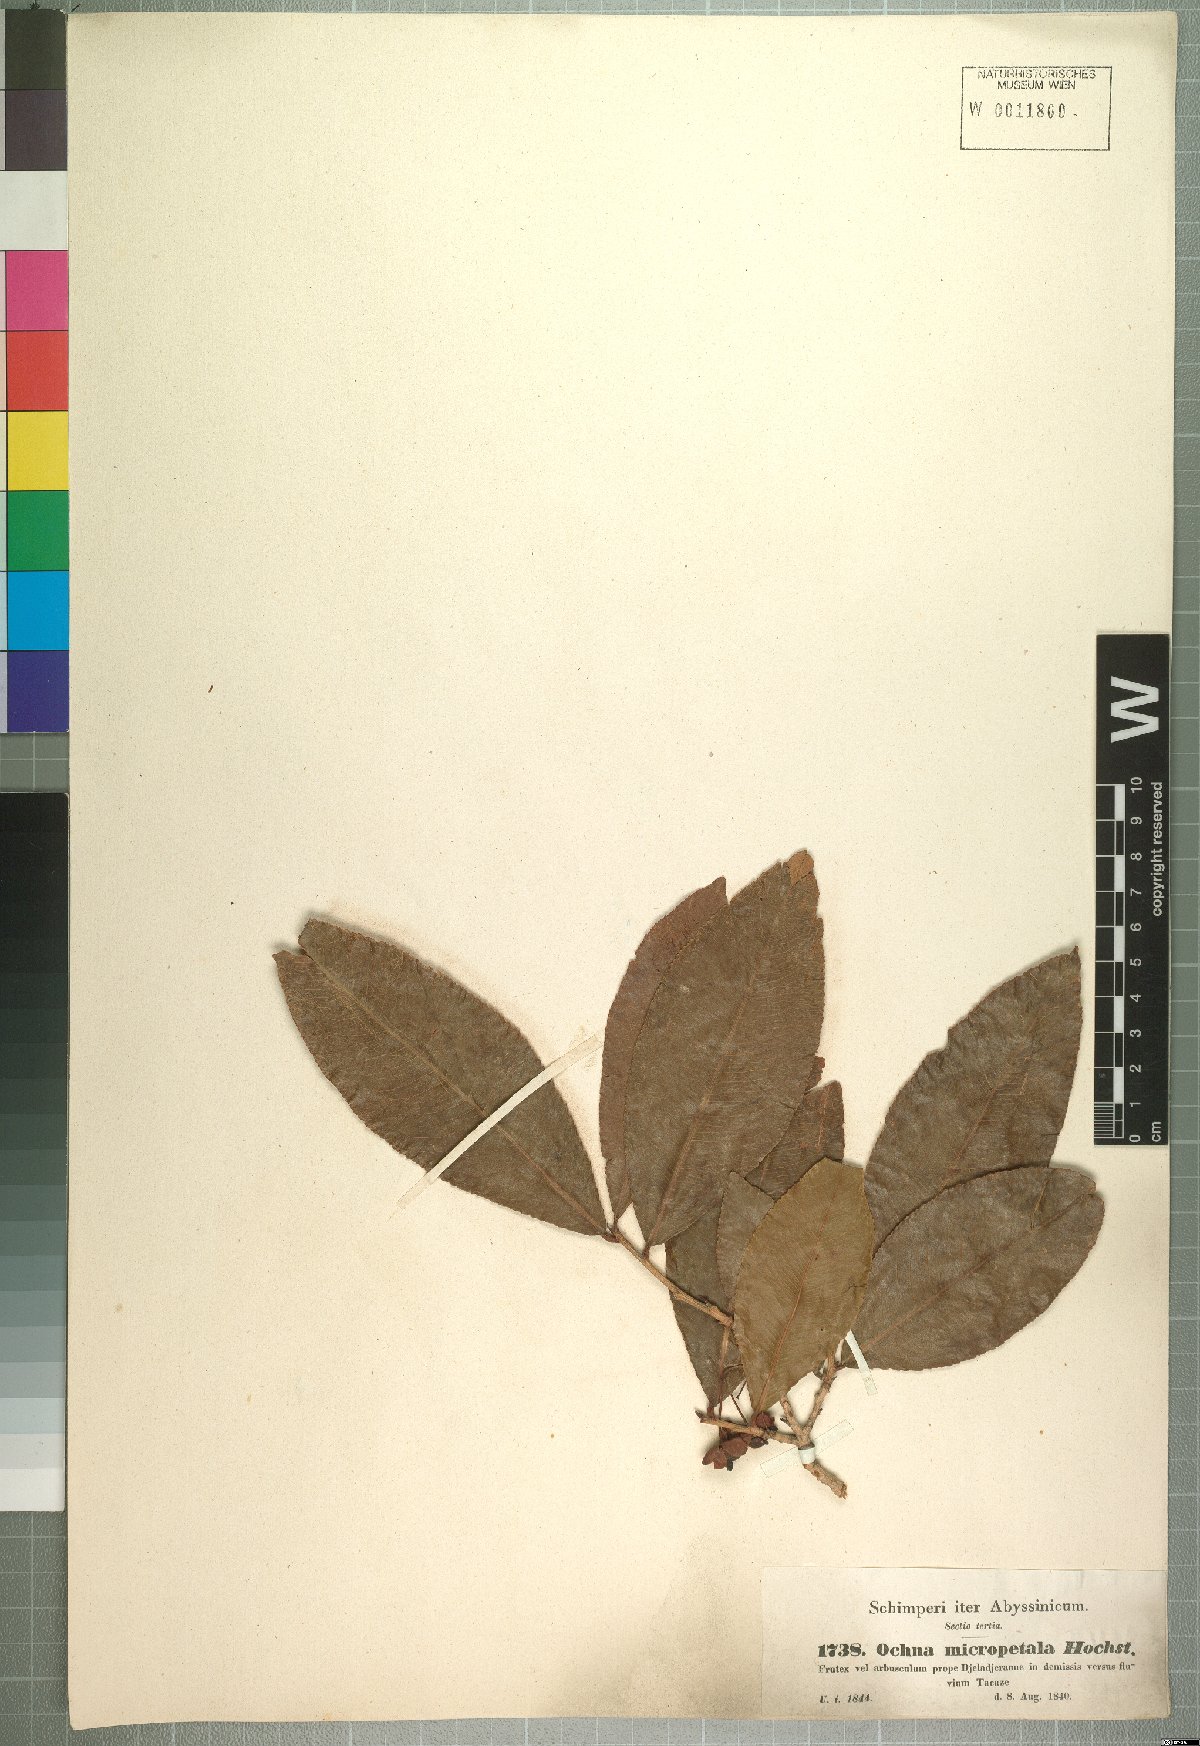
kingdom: Plantae
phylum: Tracheophyta
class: Magnoliopsida
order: Lamiales
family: Scrophulariaceae
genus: Dischisma
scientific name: Dischisma arenarium
